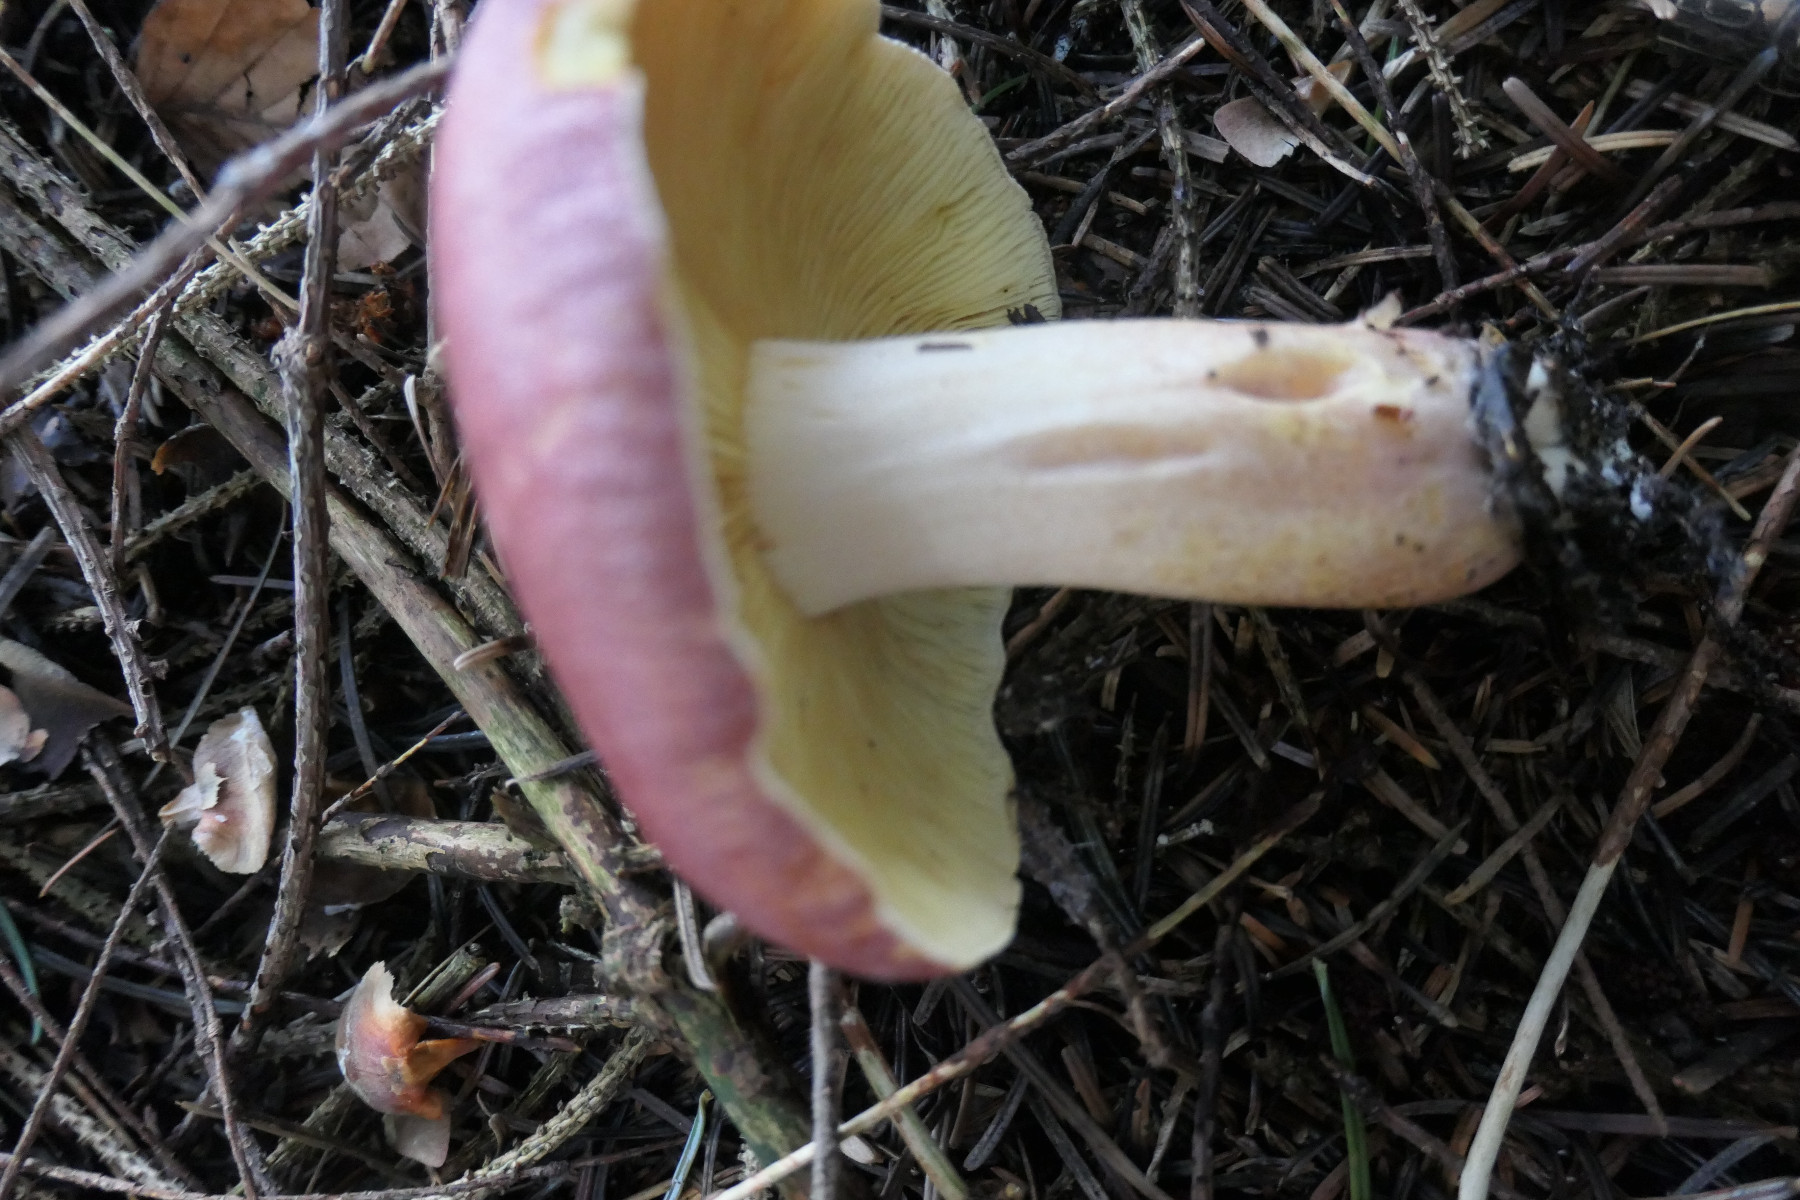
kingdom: Fungi
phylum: Basidiomycota
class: Agaricomycetes
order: Agaricales
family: Tricholomataceae
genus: Tricholomopsis
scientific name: Tricholomopsis rutilans
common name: purpur-væbnerhat
